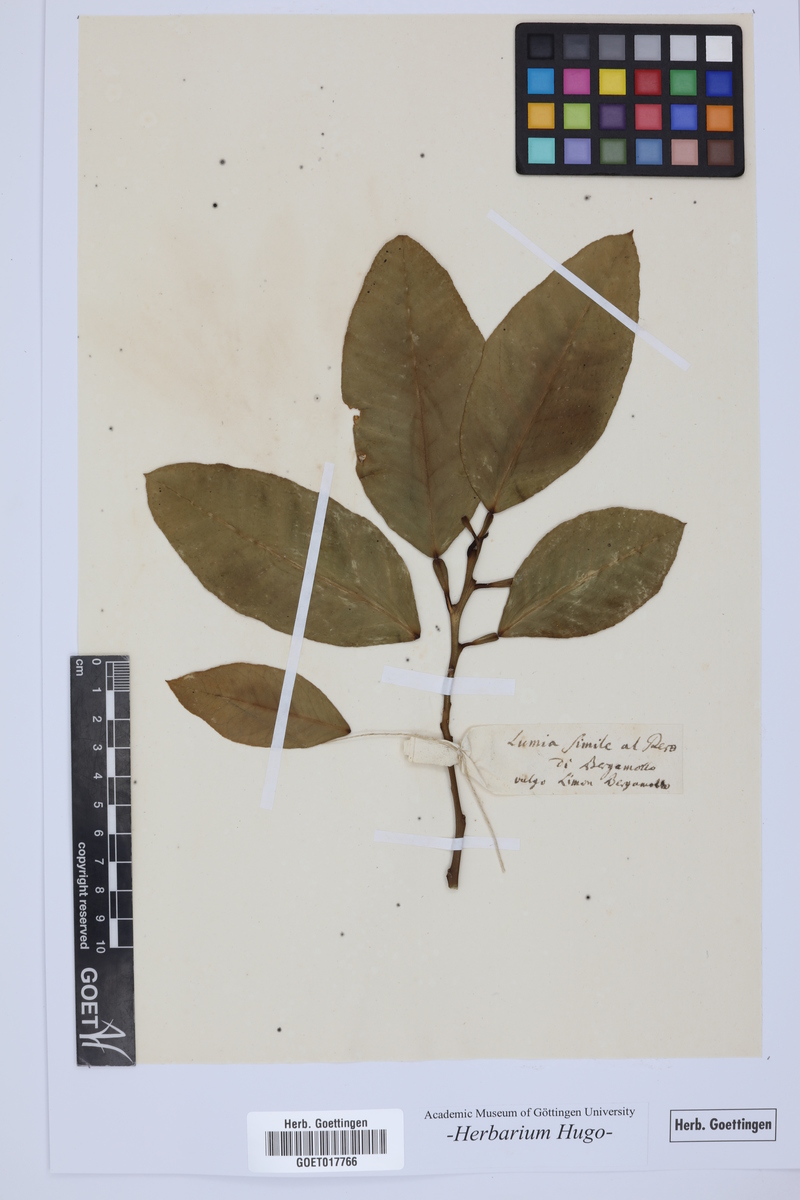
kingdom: Plantae
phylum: Tracheophyta
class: Magnoliopsida
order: Sapindales
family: Rutaceae
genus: Citrus
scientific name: Citrus
